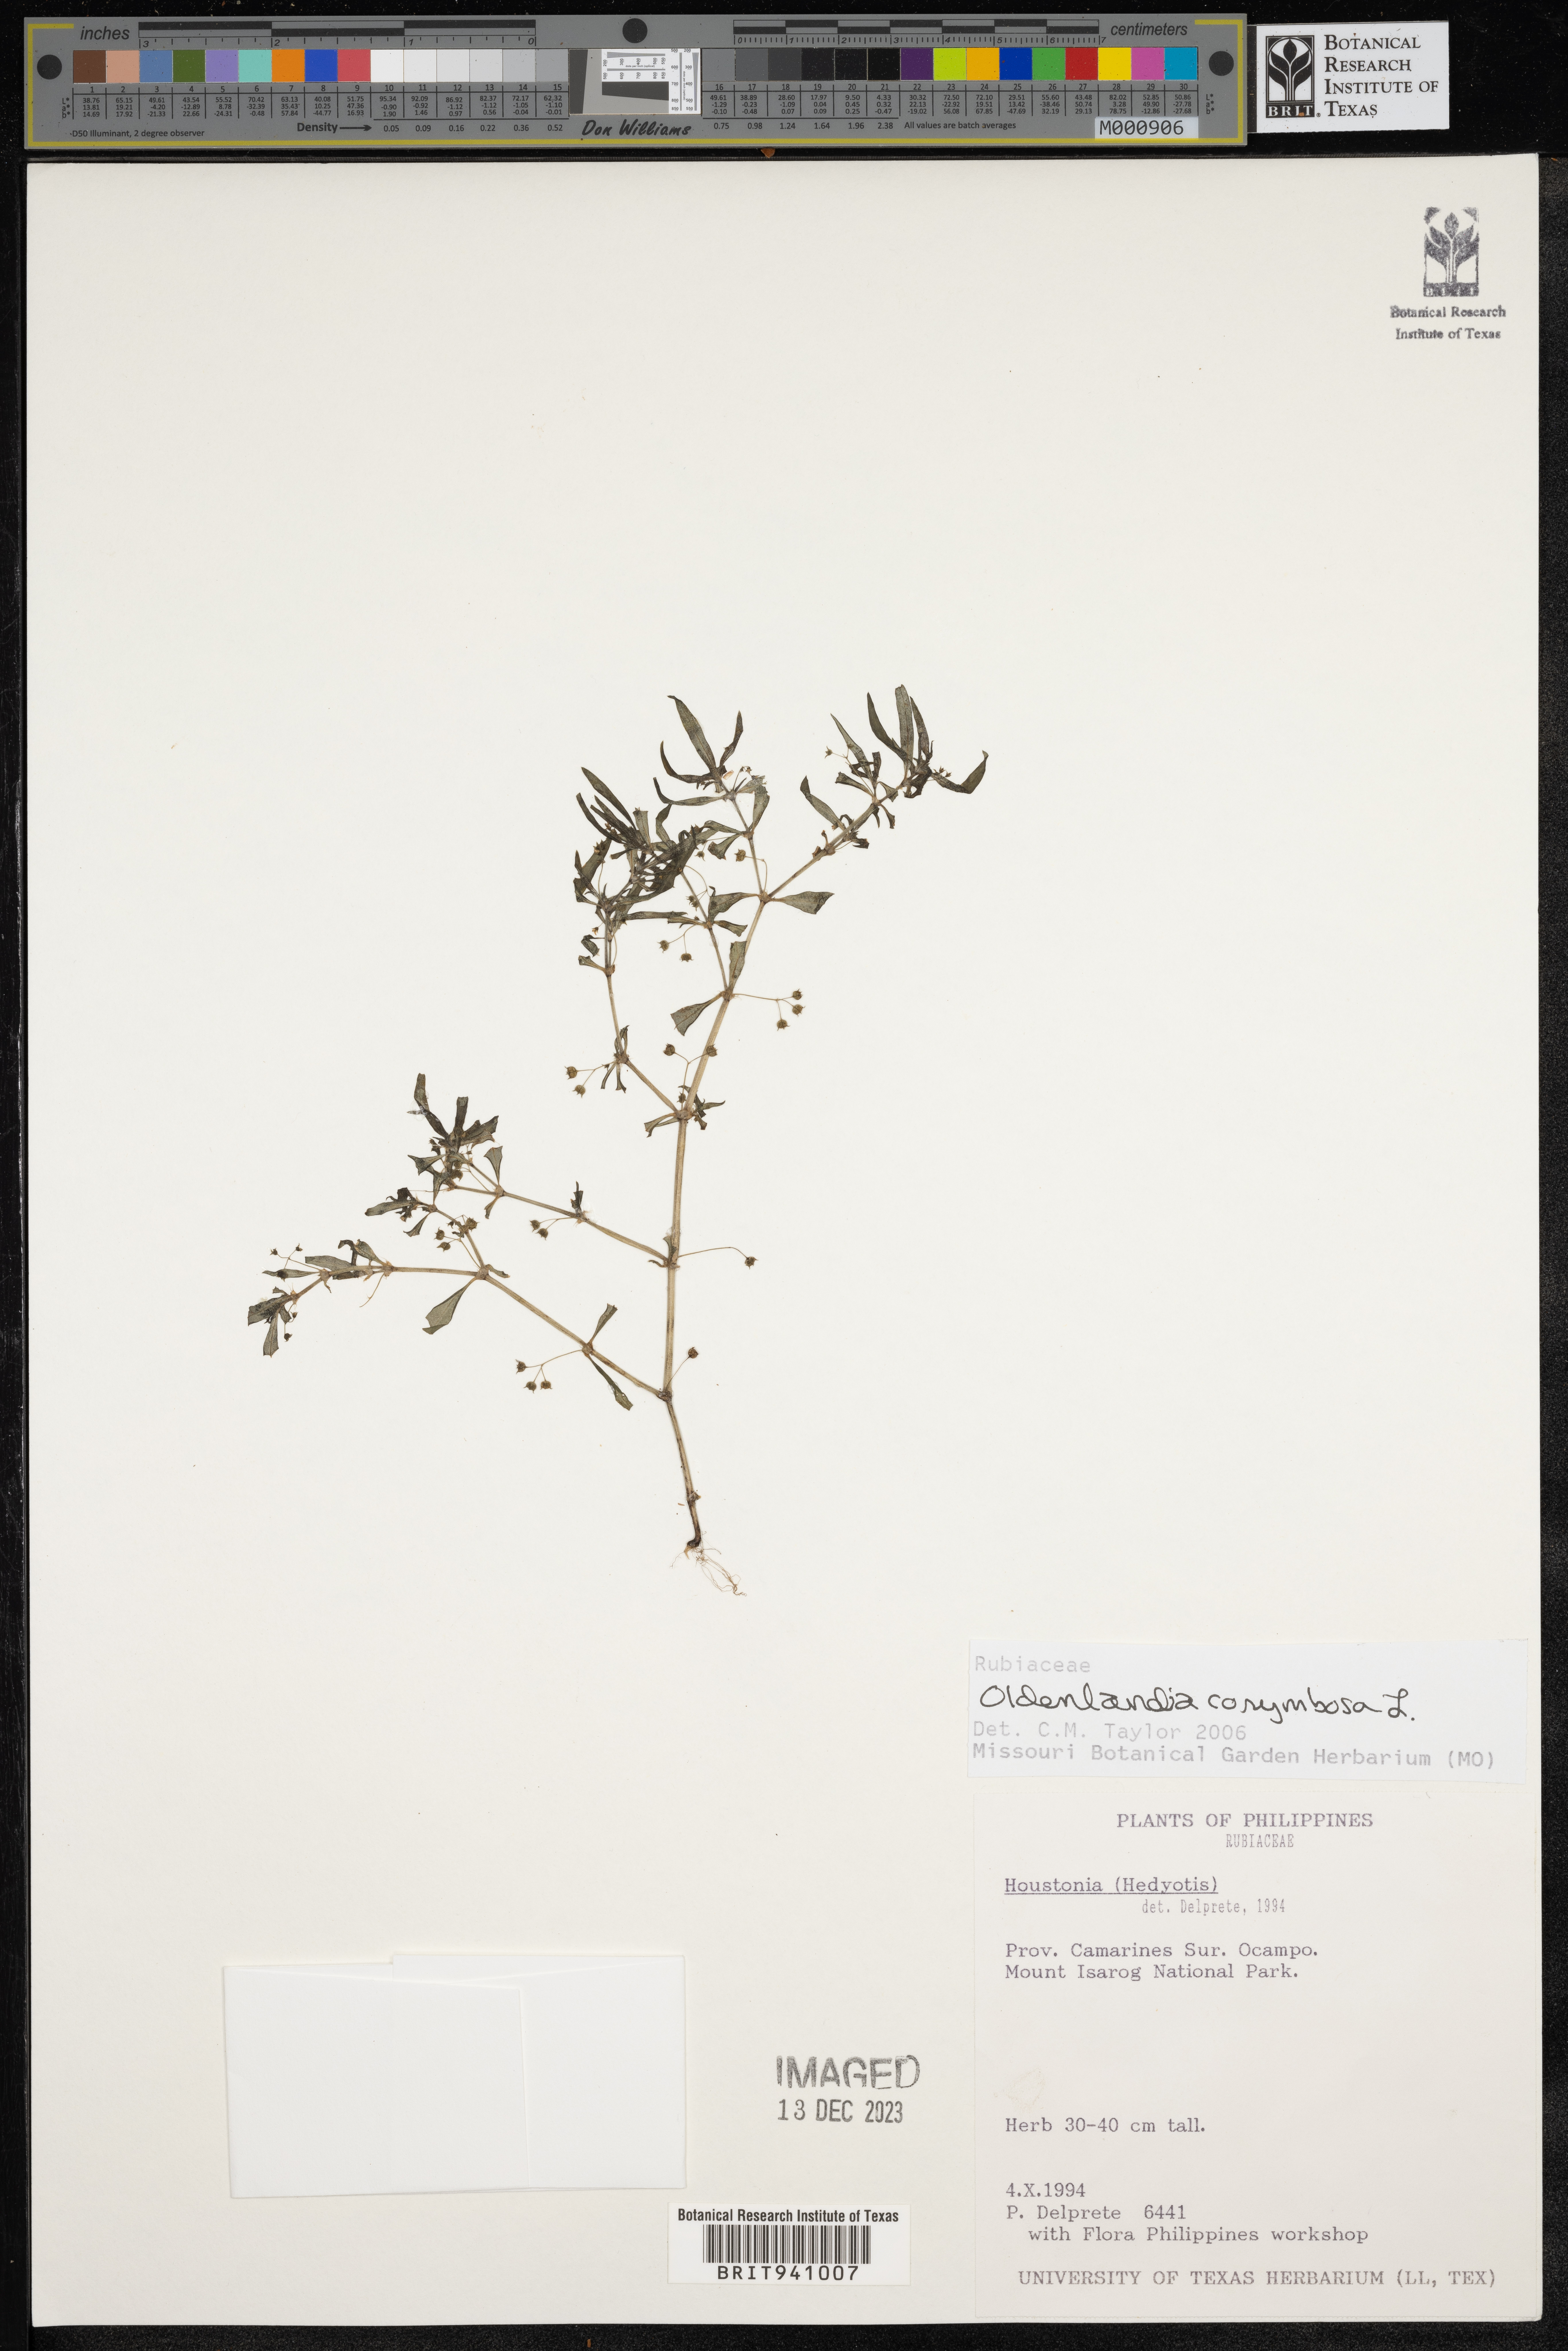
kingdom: Plantae
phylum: Tracheophyta
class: Magnoliopsida
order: Gentianales
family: Rubiaceae
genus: Oldenlandia
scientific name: Oldenlandia
